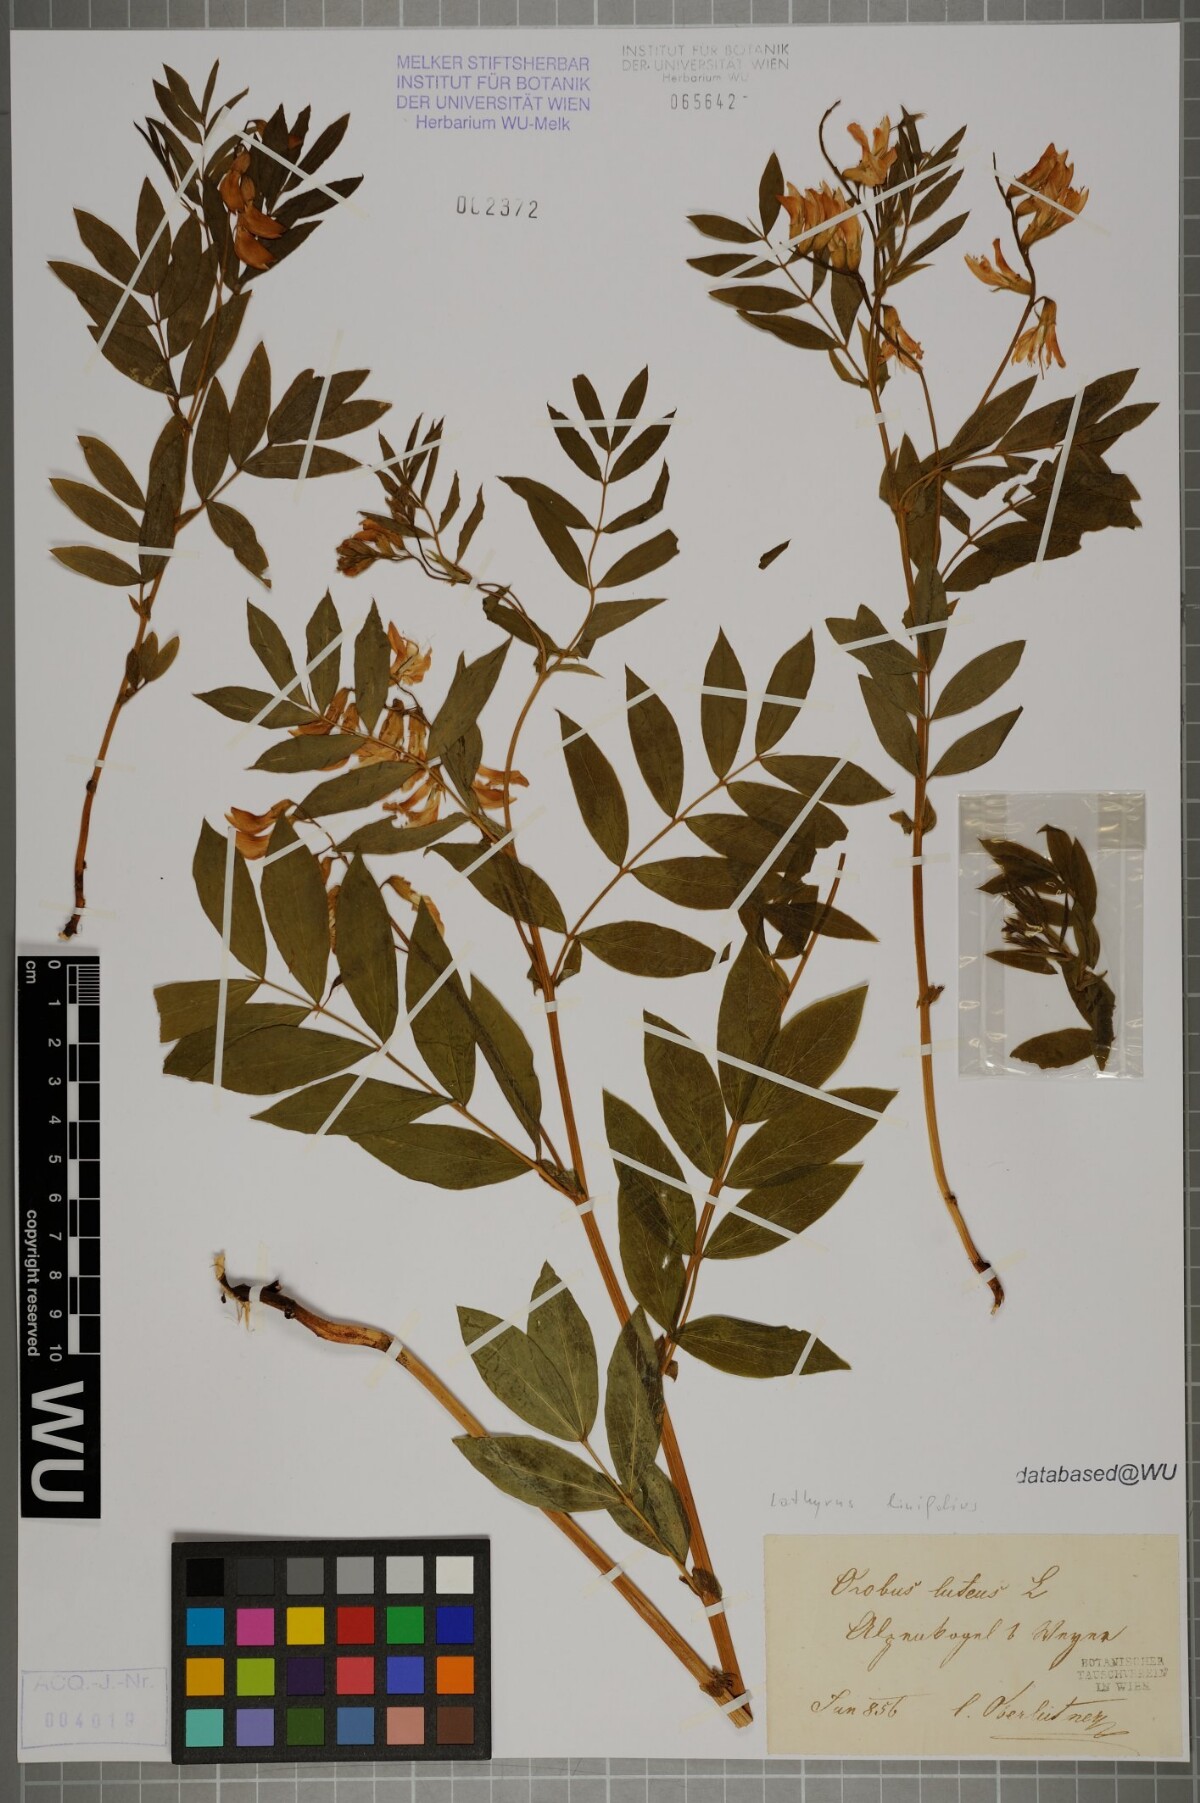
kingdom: Plantae
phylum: Tracheophyta
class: Magnoliopsida
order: Fabales
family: Fabaceae
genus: Lathyrus
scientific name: Lathyrus laevigatus
